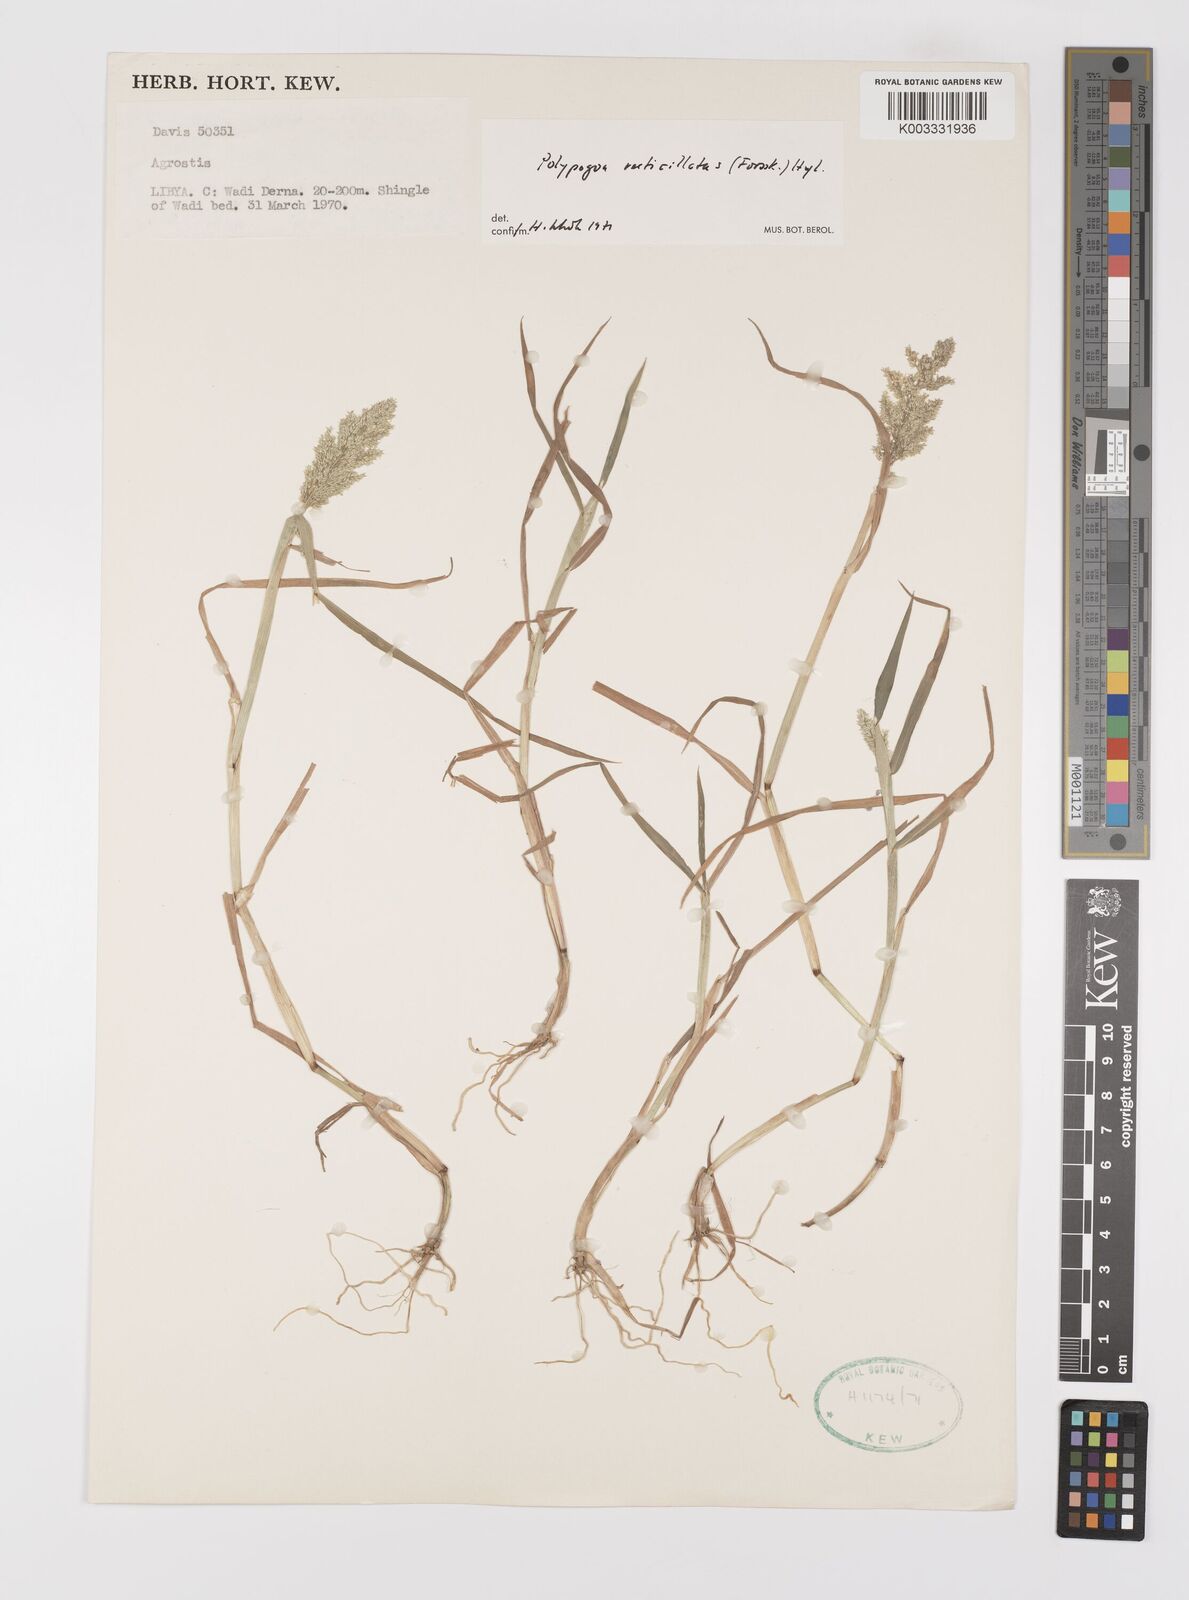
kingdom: Plantae
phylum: Tracheophyta
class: Liliopsida
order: Poales
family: Poaceae
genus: Polypogon
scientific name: Polypogon viridis
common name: Water bent
